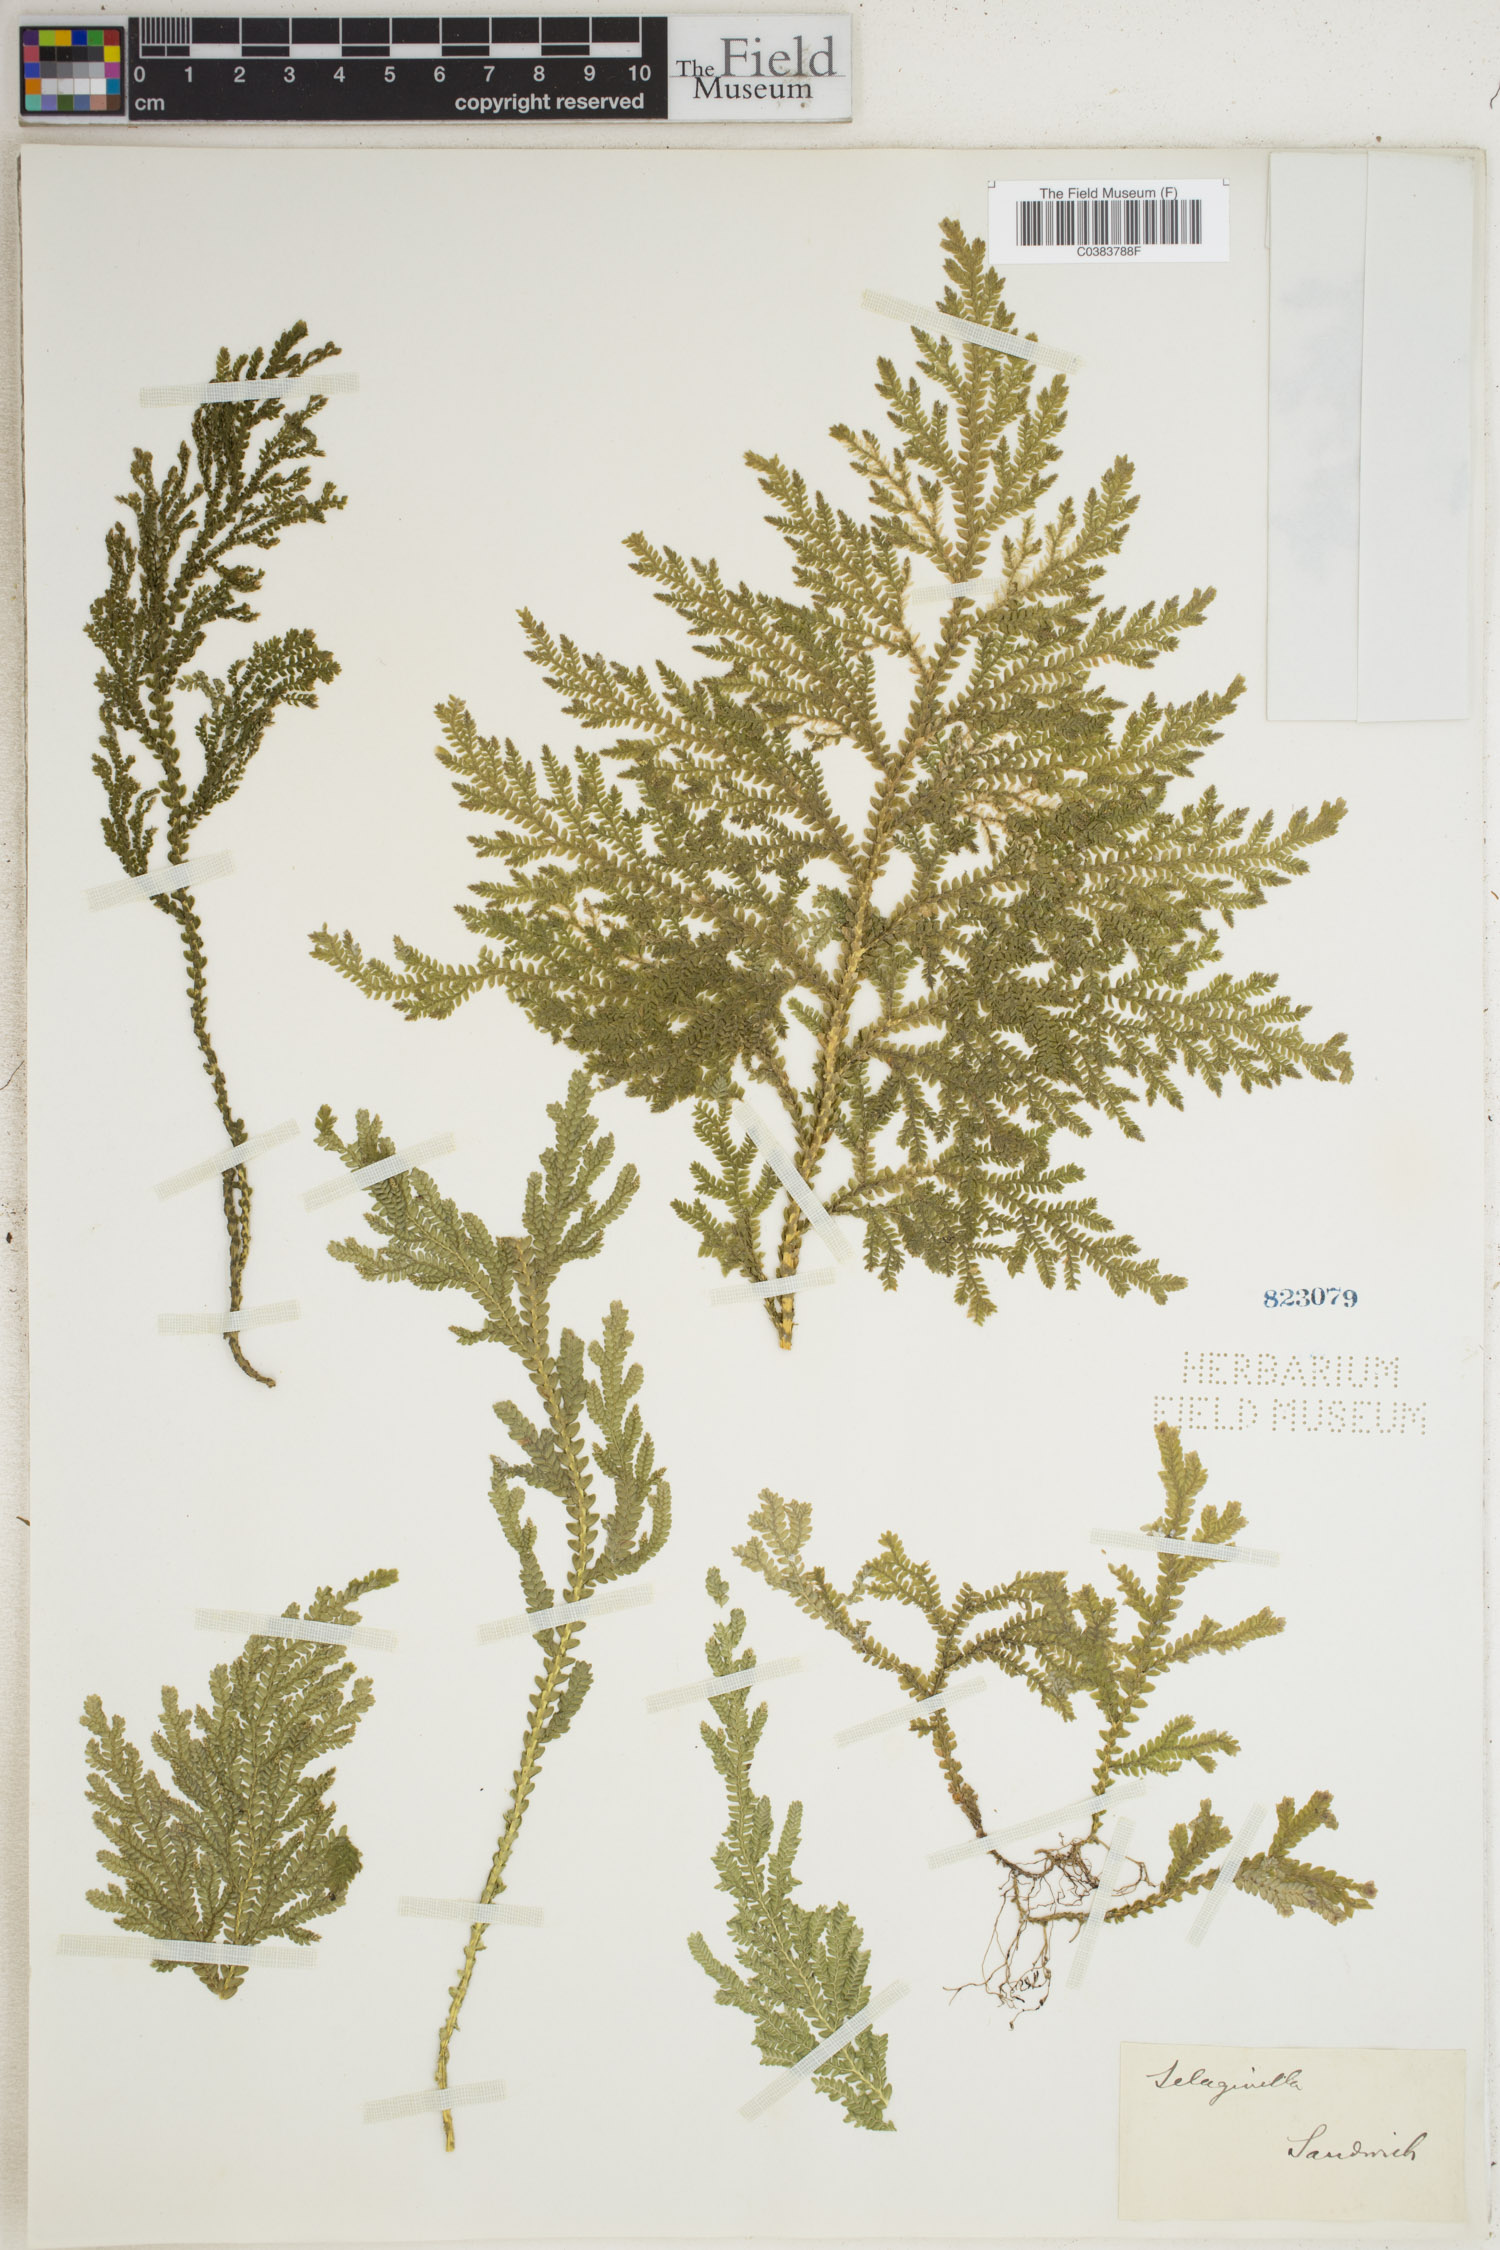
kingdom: Plantae
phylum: Tracheophyta
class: Lycopodiopsida
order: Selaginellales
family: Selaginellaceae
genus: Selaginella
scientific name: Selaginella
